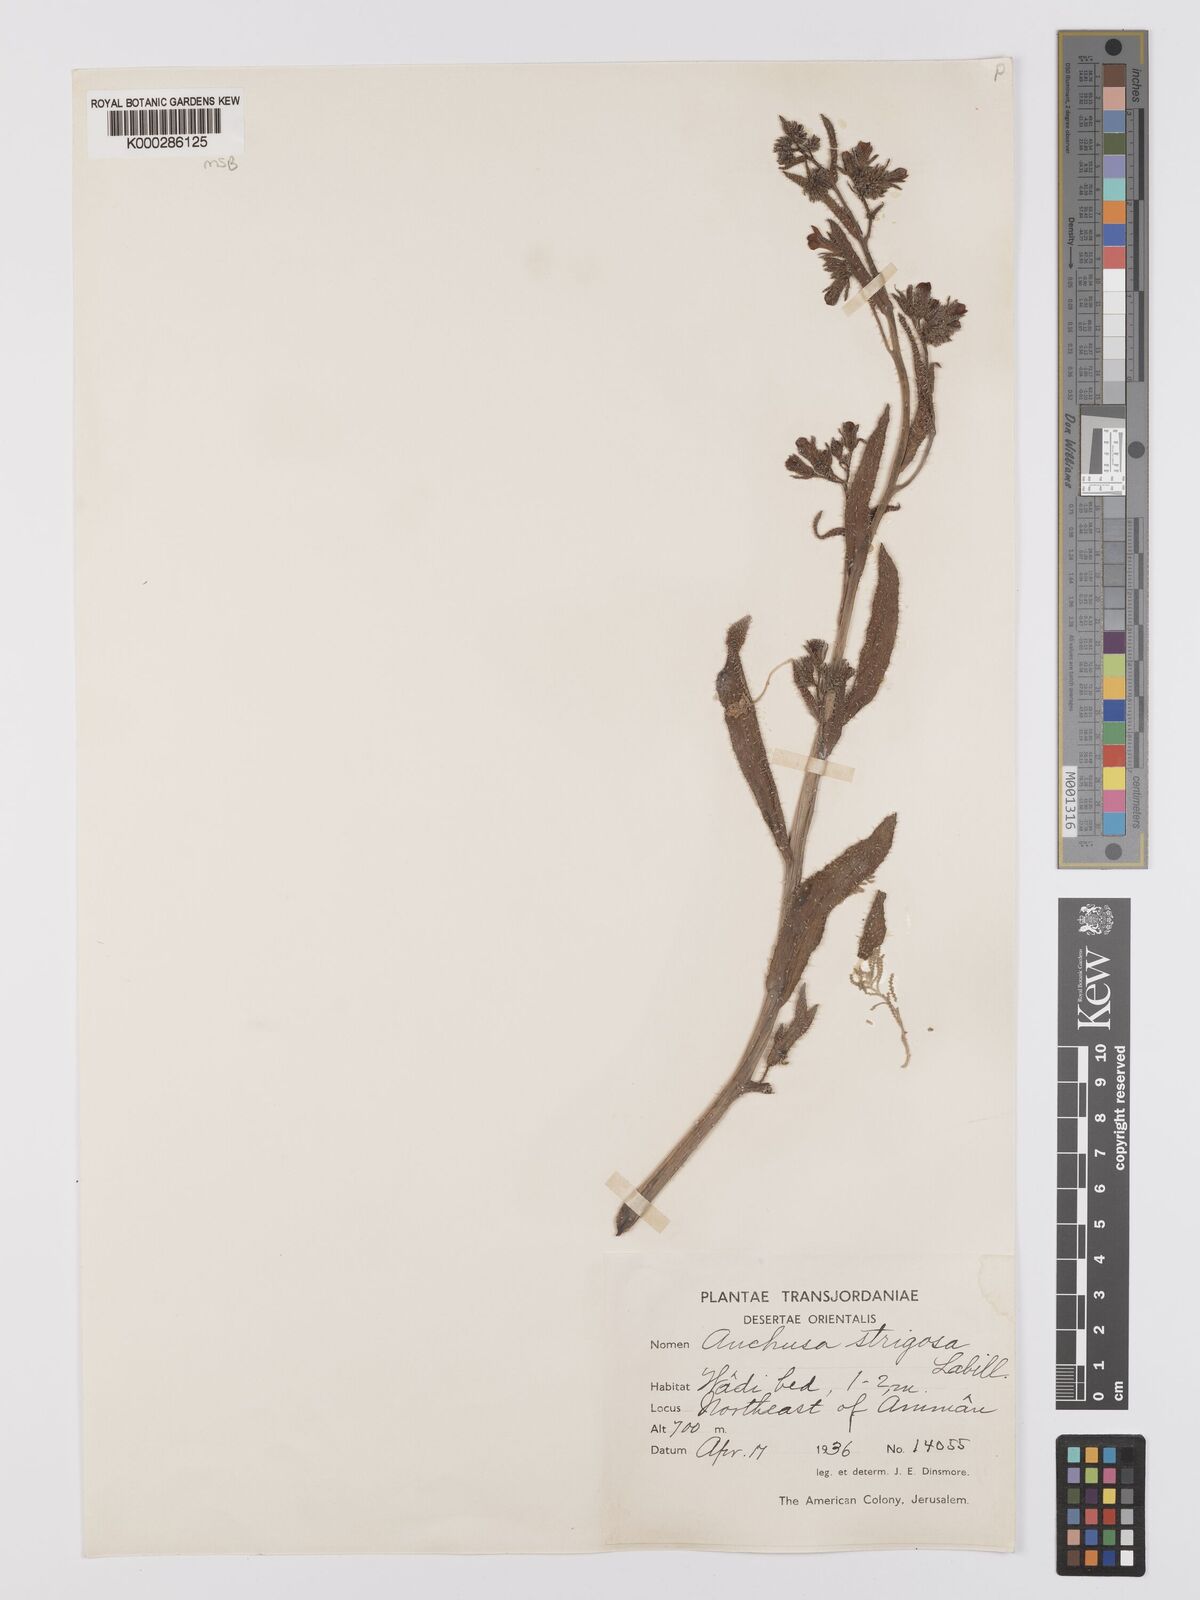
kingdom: Plantae
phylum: Tracheophyta
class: Magnoliopsida
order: Boraginales
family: Boraginaceae
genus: Anchusa
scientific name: Anchusa strigosa
